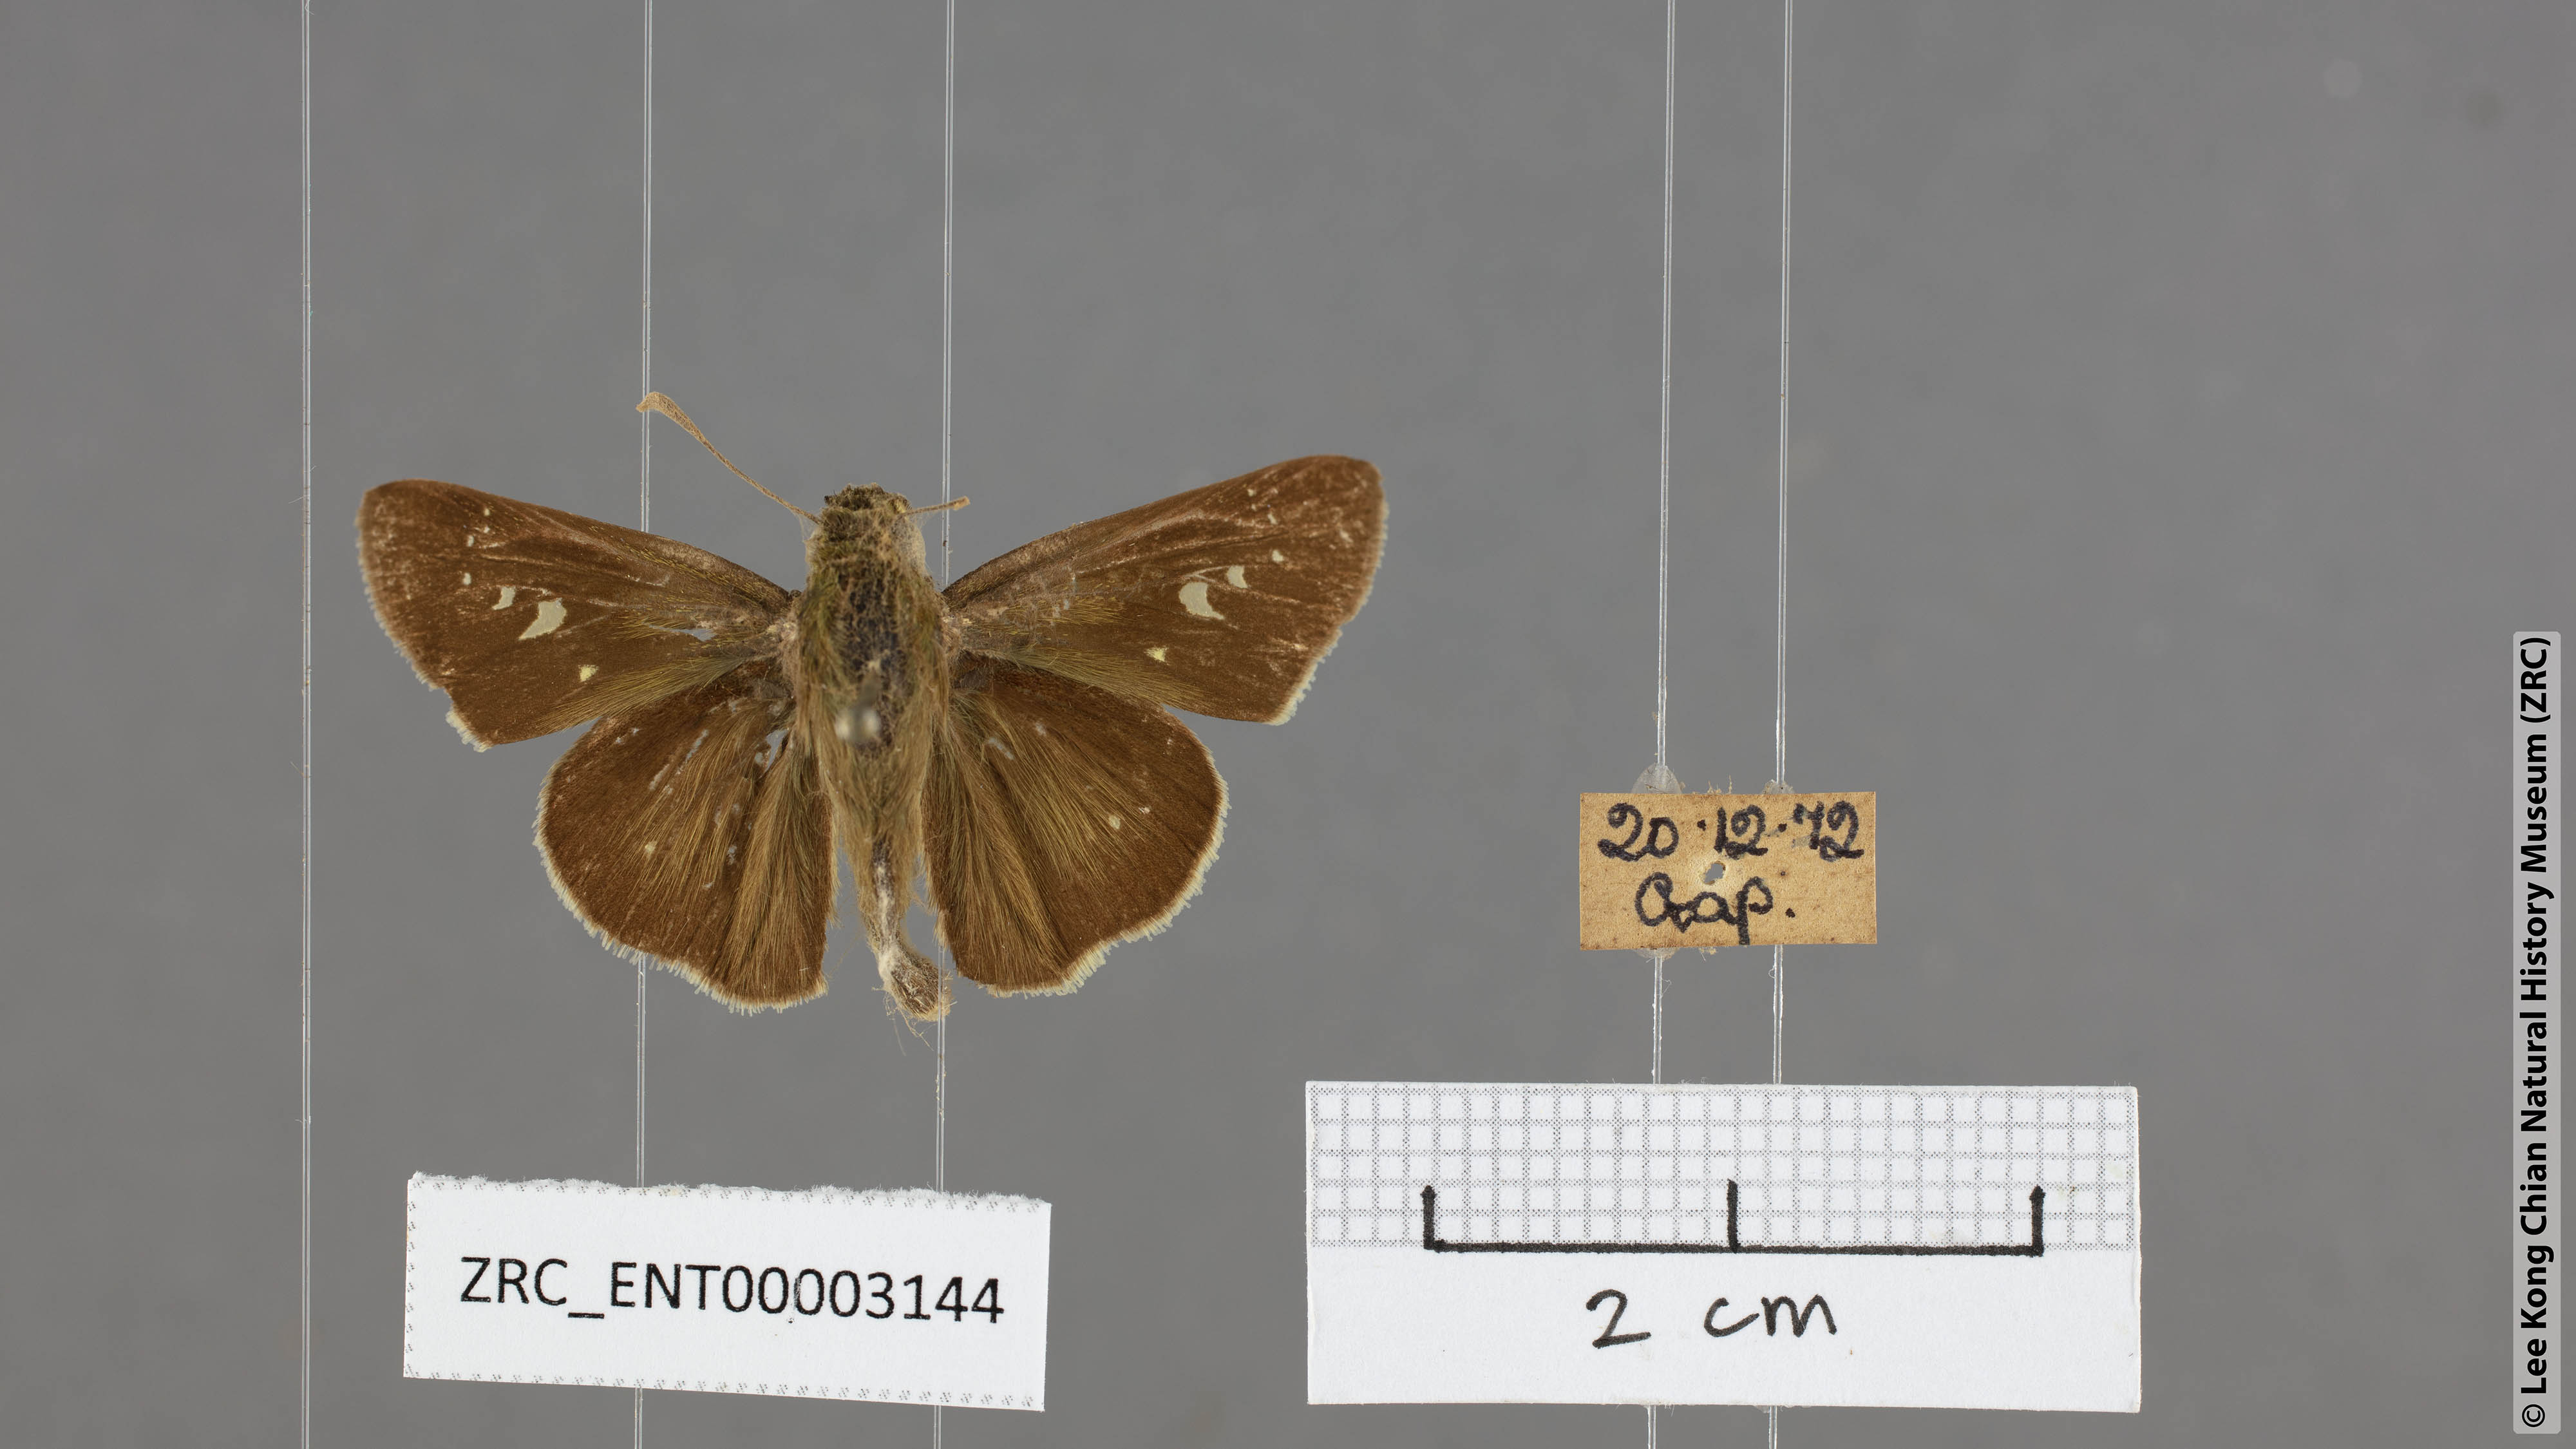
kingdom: Animalia
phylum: Arthropoda
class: Insecta
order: Lepidoptera
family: Hesperiidae
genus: Borbo
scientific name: Borbo cinnara
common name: Formosan swift
